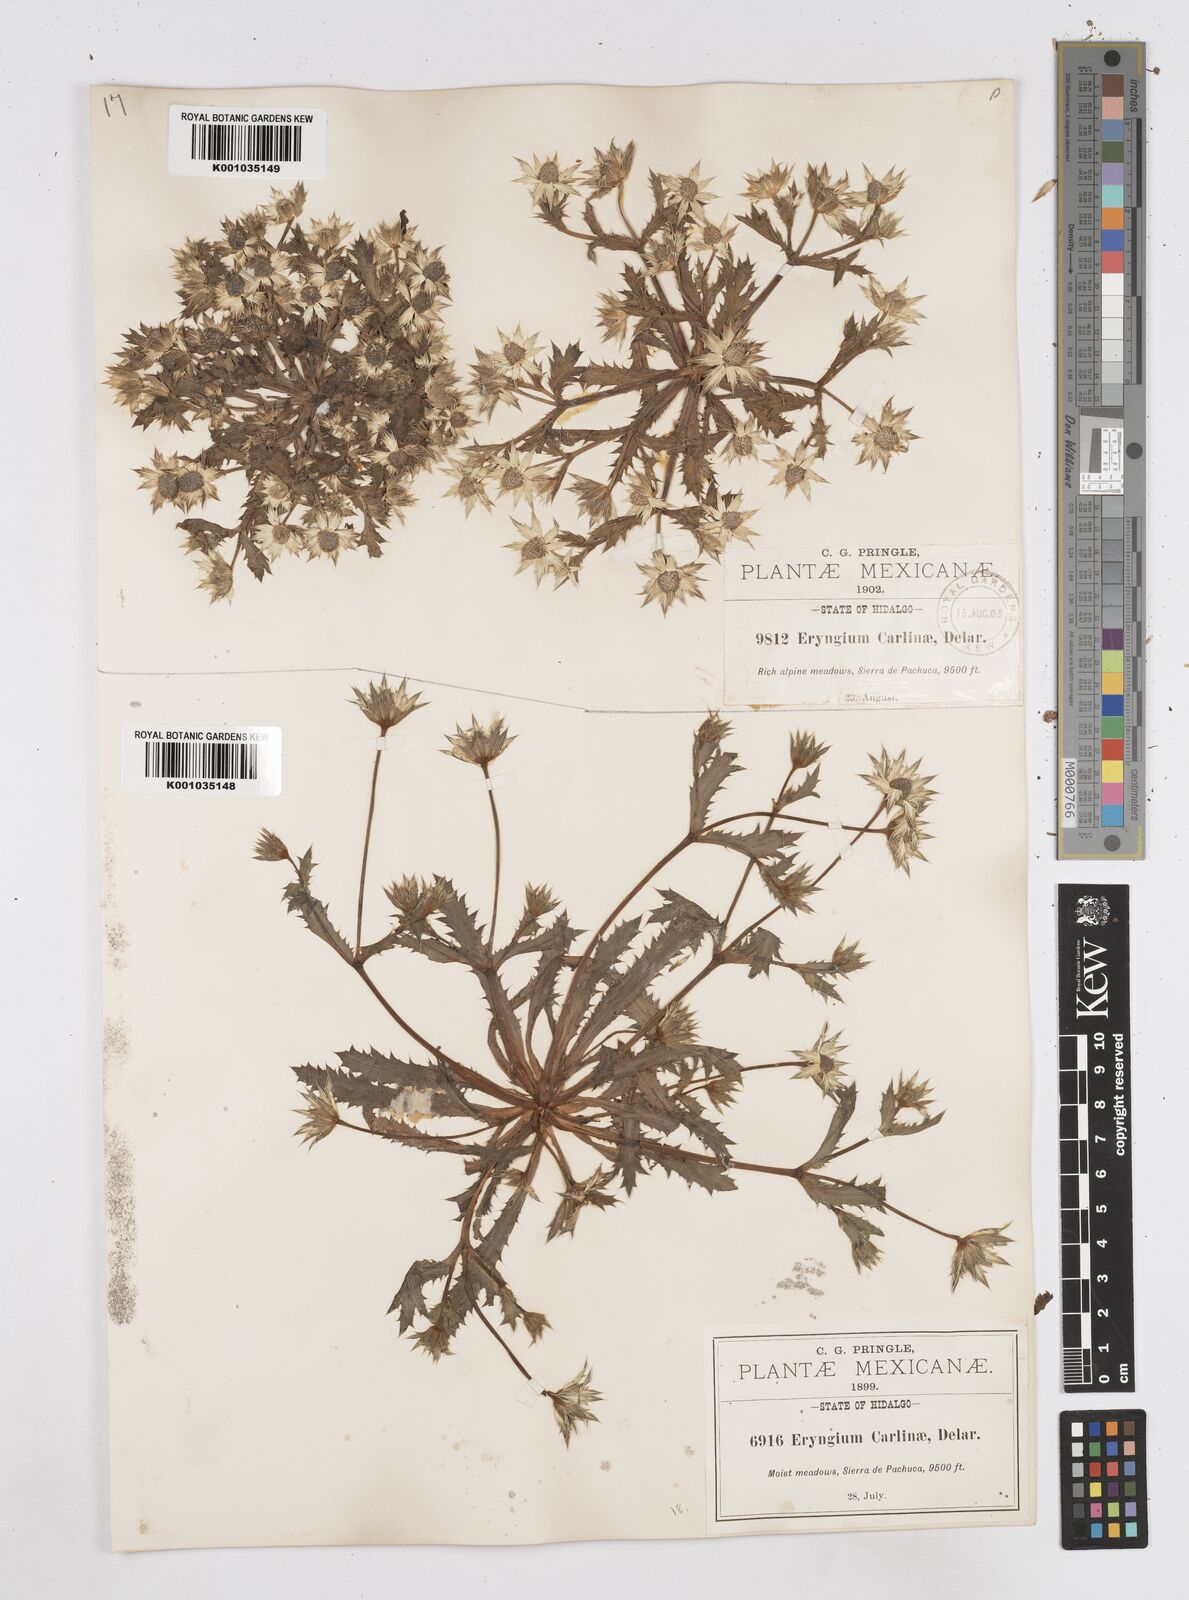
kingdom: Plantae
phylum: Tracheophyta
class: Magnoliopsida
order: Apiales
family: Apiaceae
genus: Eryngium
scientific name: Eryngium carlinae
